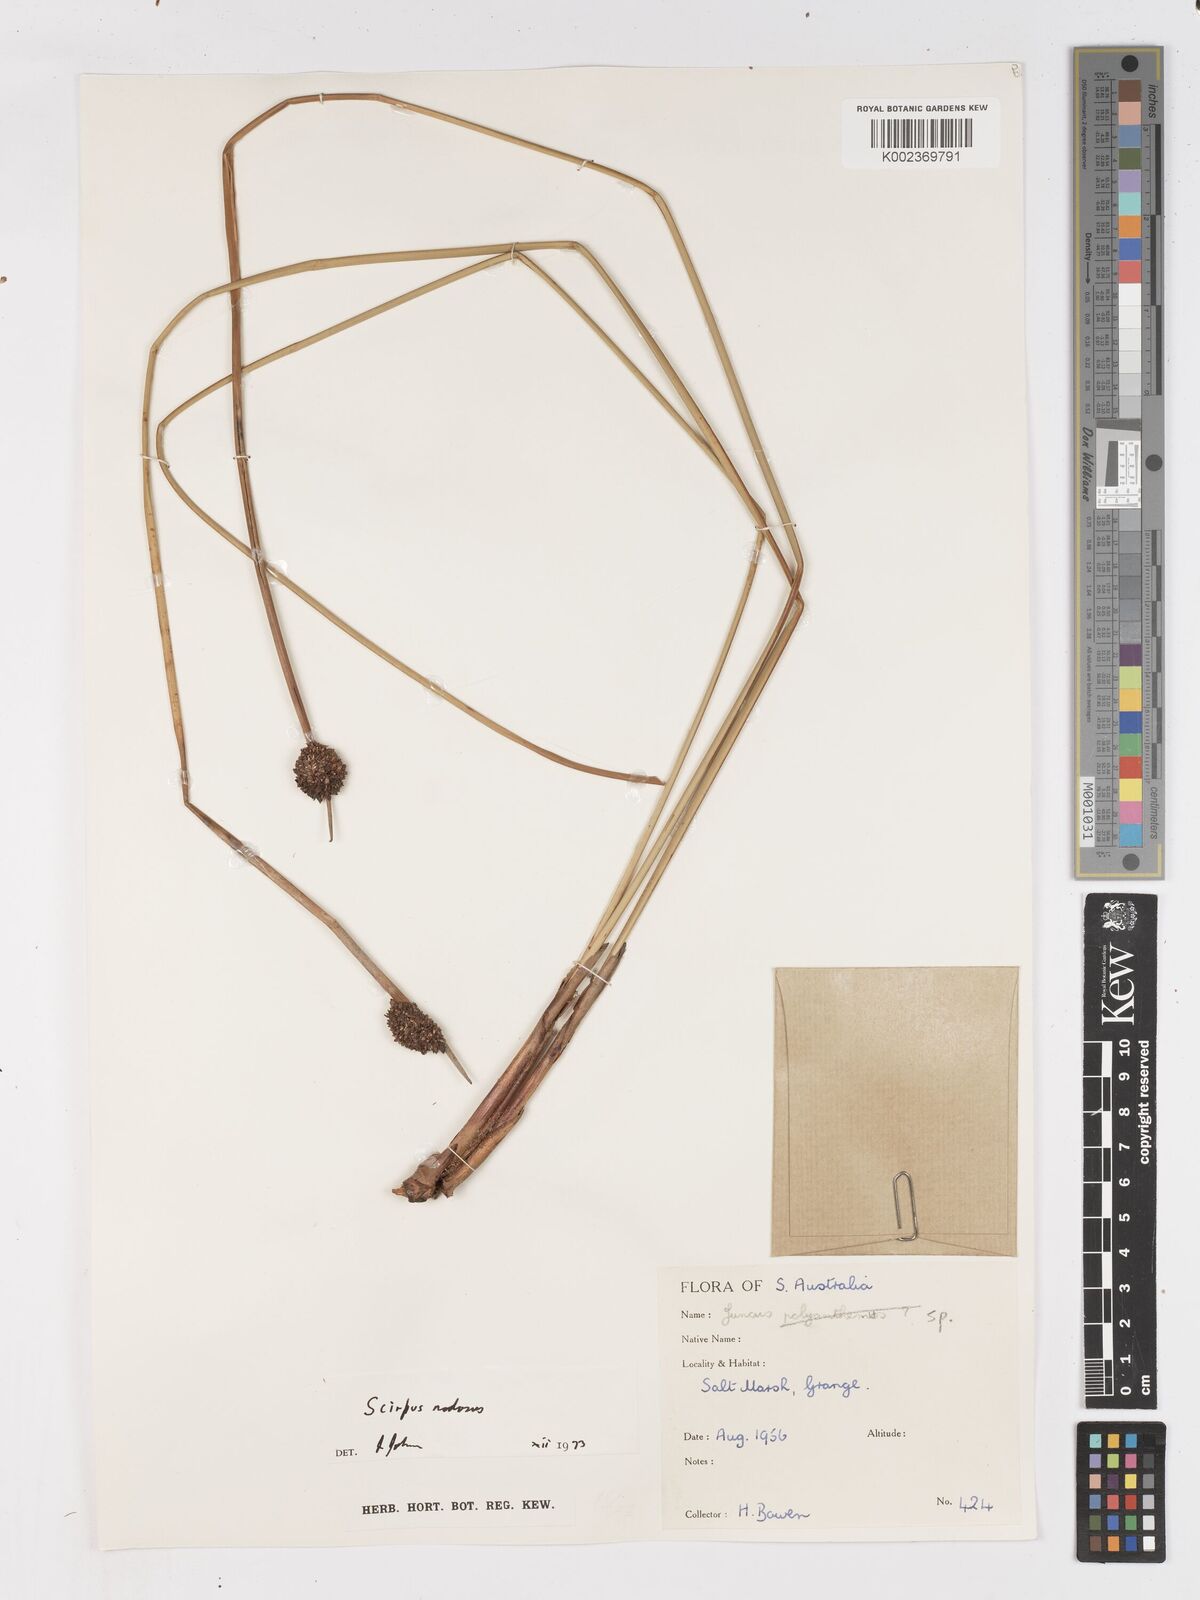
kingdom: Plantae
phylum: Tracheophyta
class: Liliopsida
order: Poales
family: Cyperaceae
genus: Ficinia
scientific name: Ficinia nodosa
